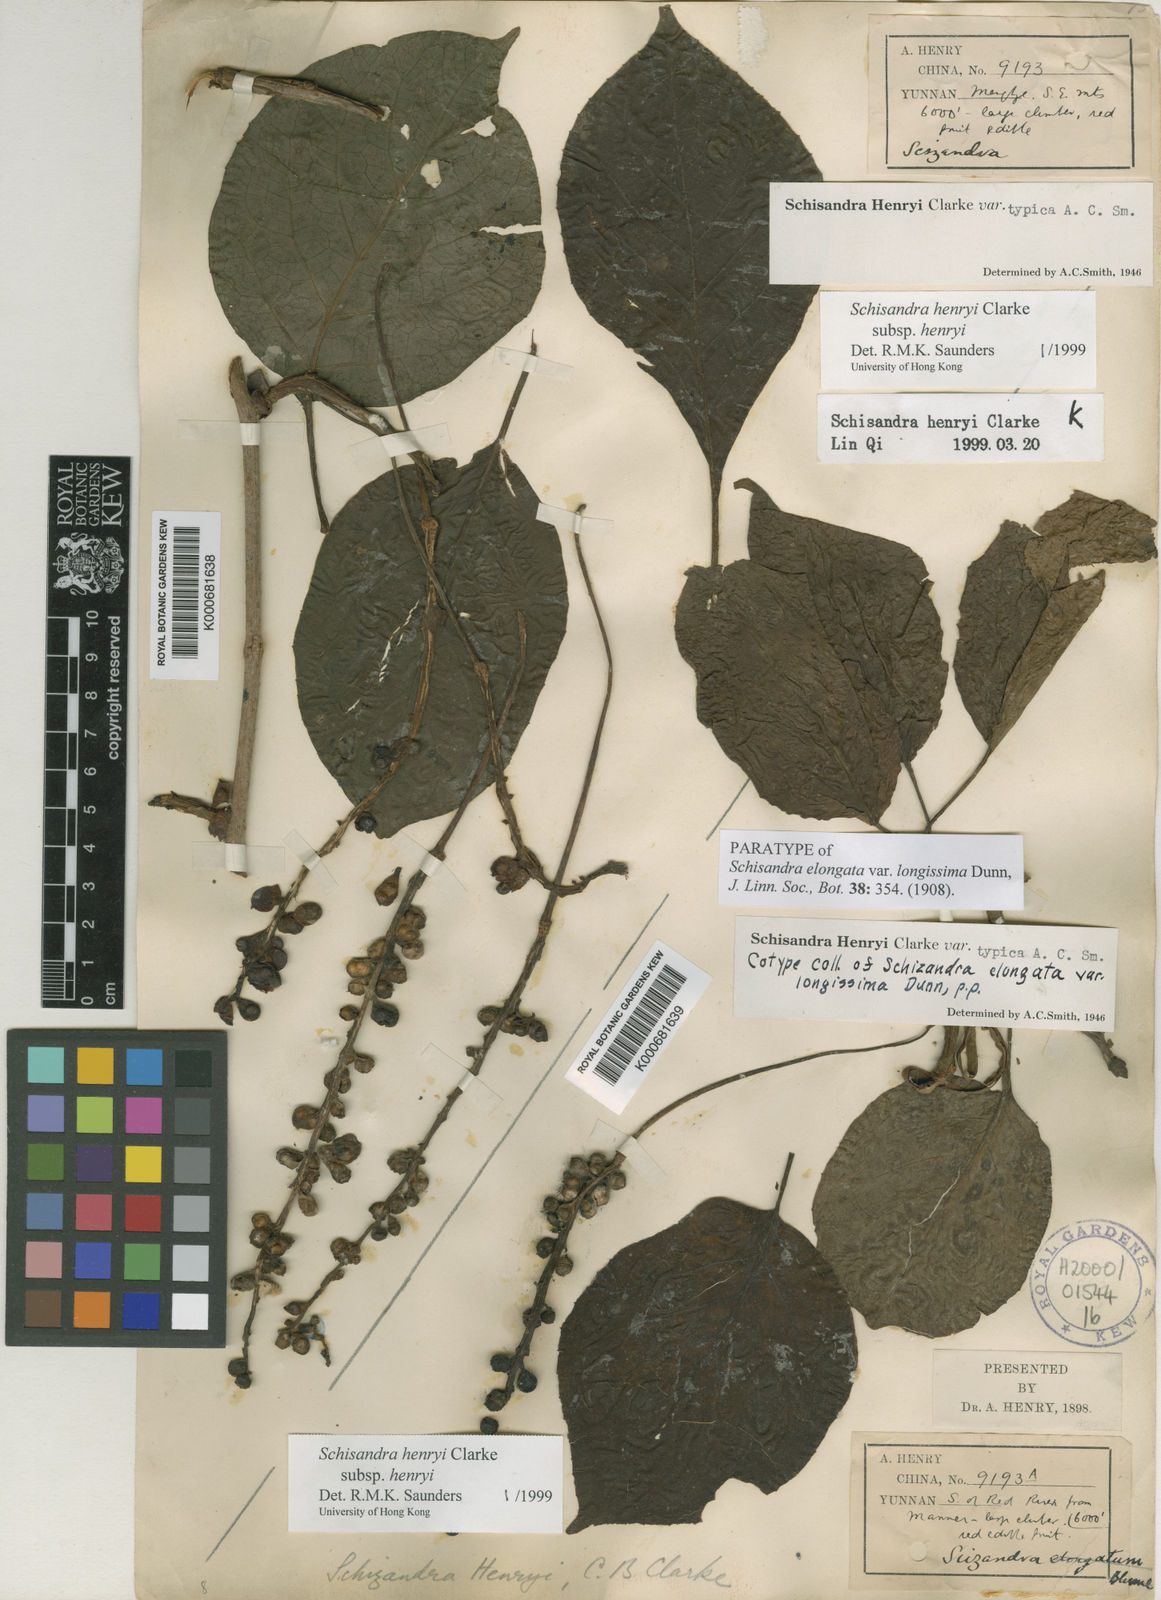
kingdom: Plantae
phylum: Tracheophyta
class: Magnoliopsida
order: Austrobaileyales
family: Schisandraceae
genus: Schisandra
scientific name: Schisandra henryi
